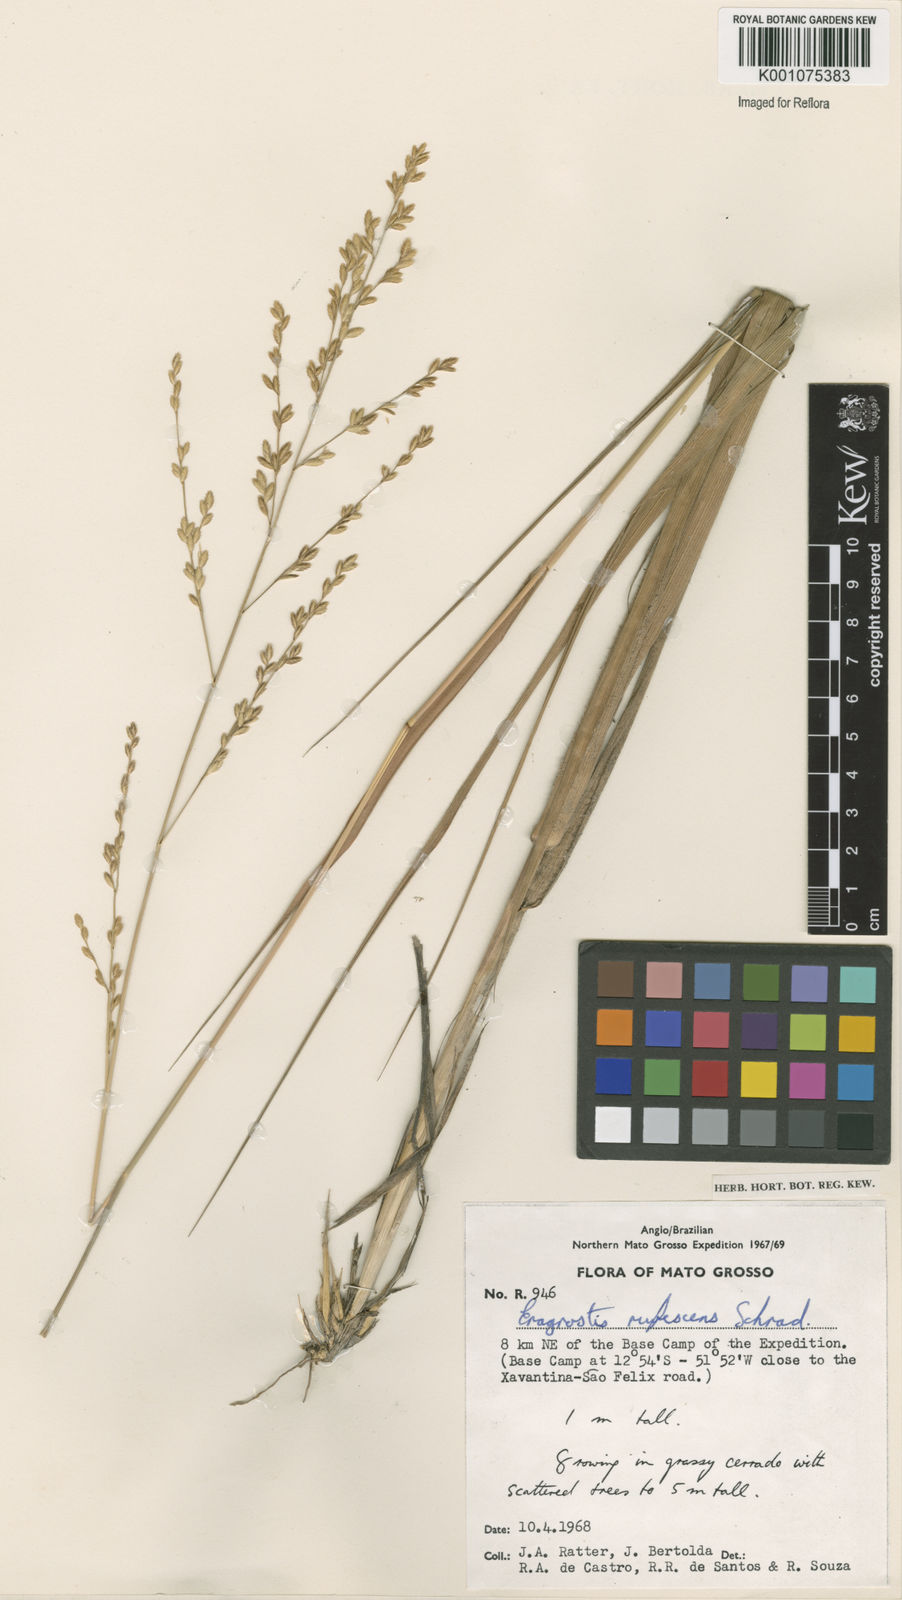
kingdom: Plantae
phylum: Tracheophyta
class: Liliopsida
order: Poales
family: Poaceae
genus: Eragrostis
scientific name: Eragrostis solida
